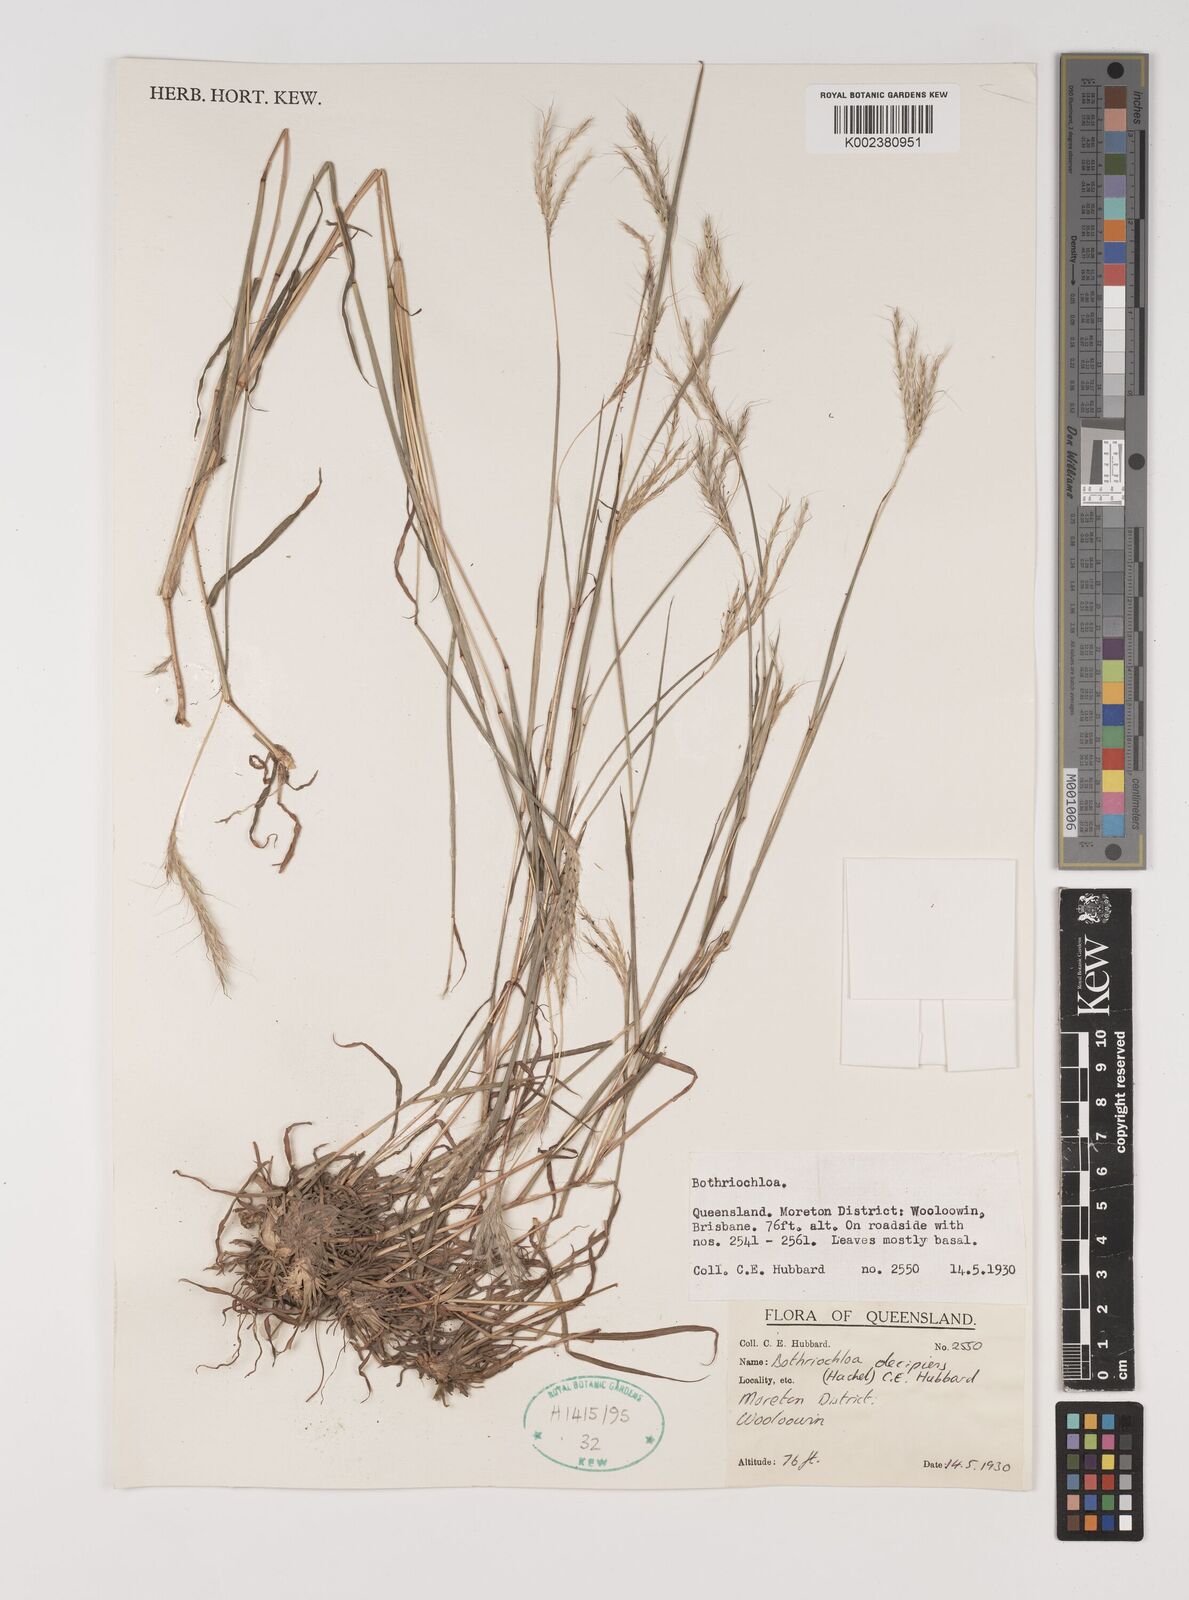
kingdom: Plantae
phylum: Tracheophyta
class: Liliopsida
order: Poales
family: Poaceae
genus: Bothriochloa
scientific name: Bothriochloa decipiens
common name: Pitted-bluegrass
